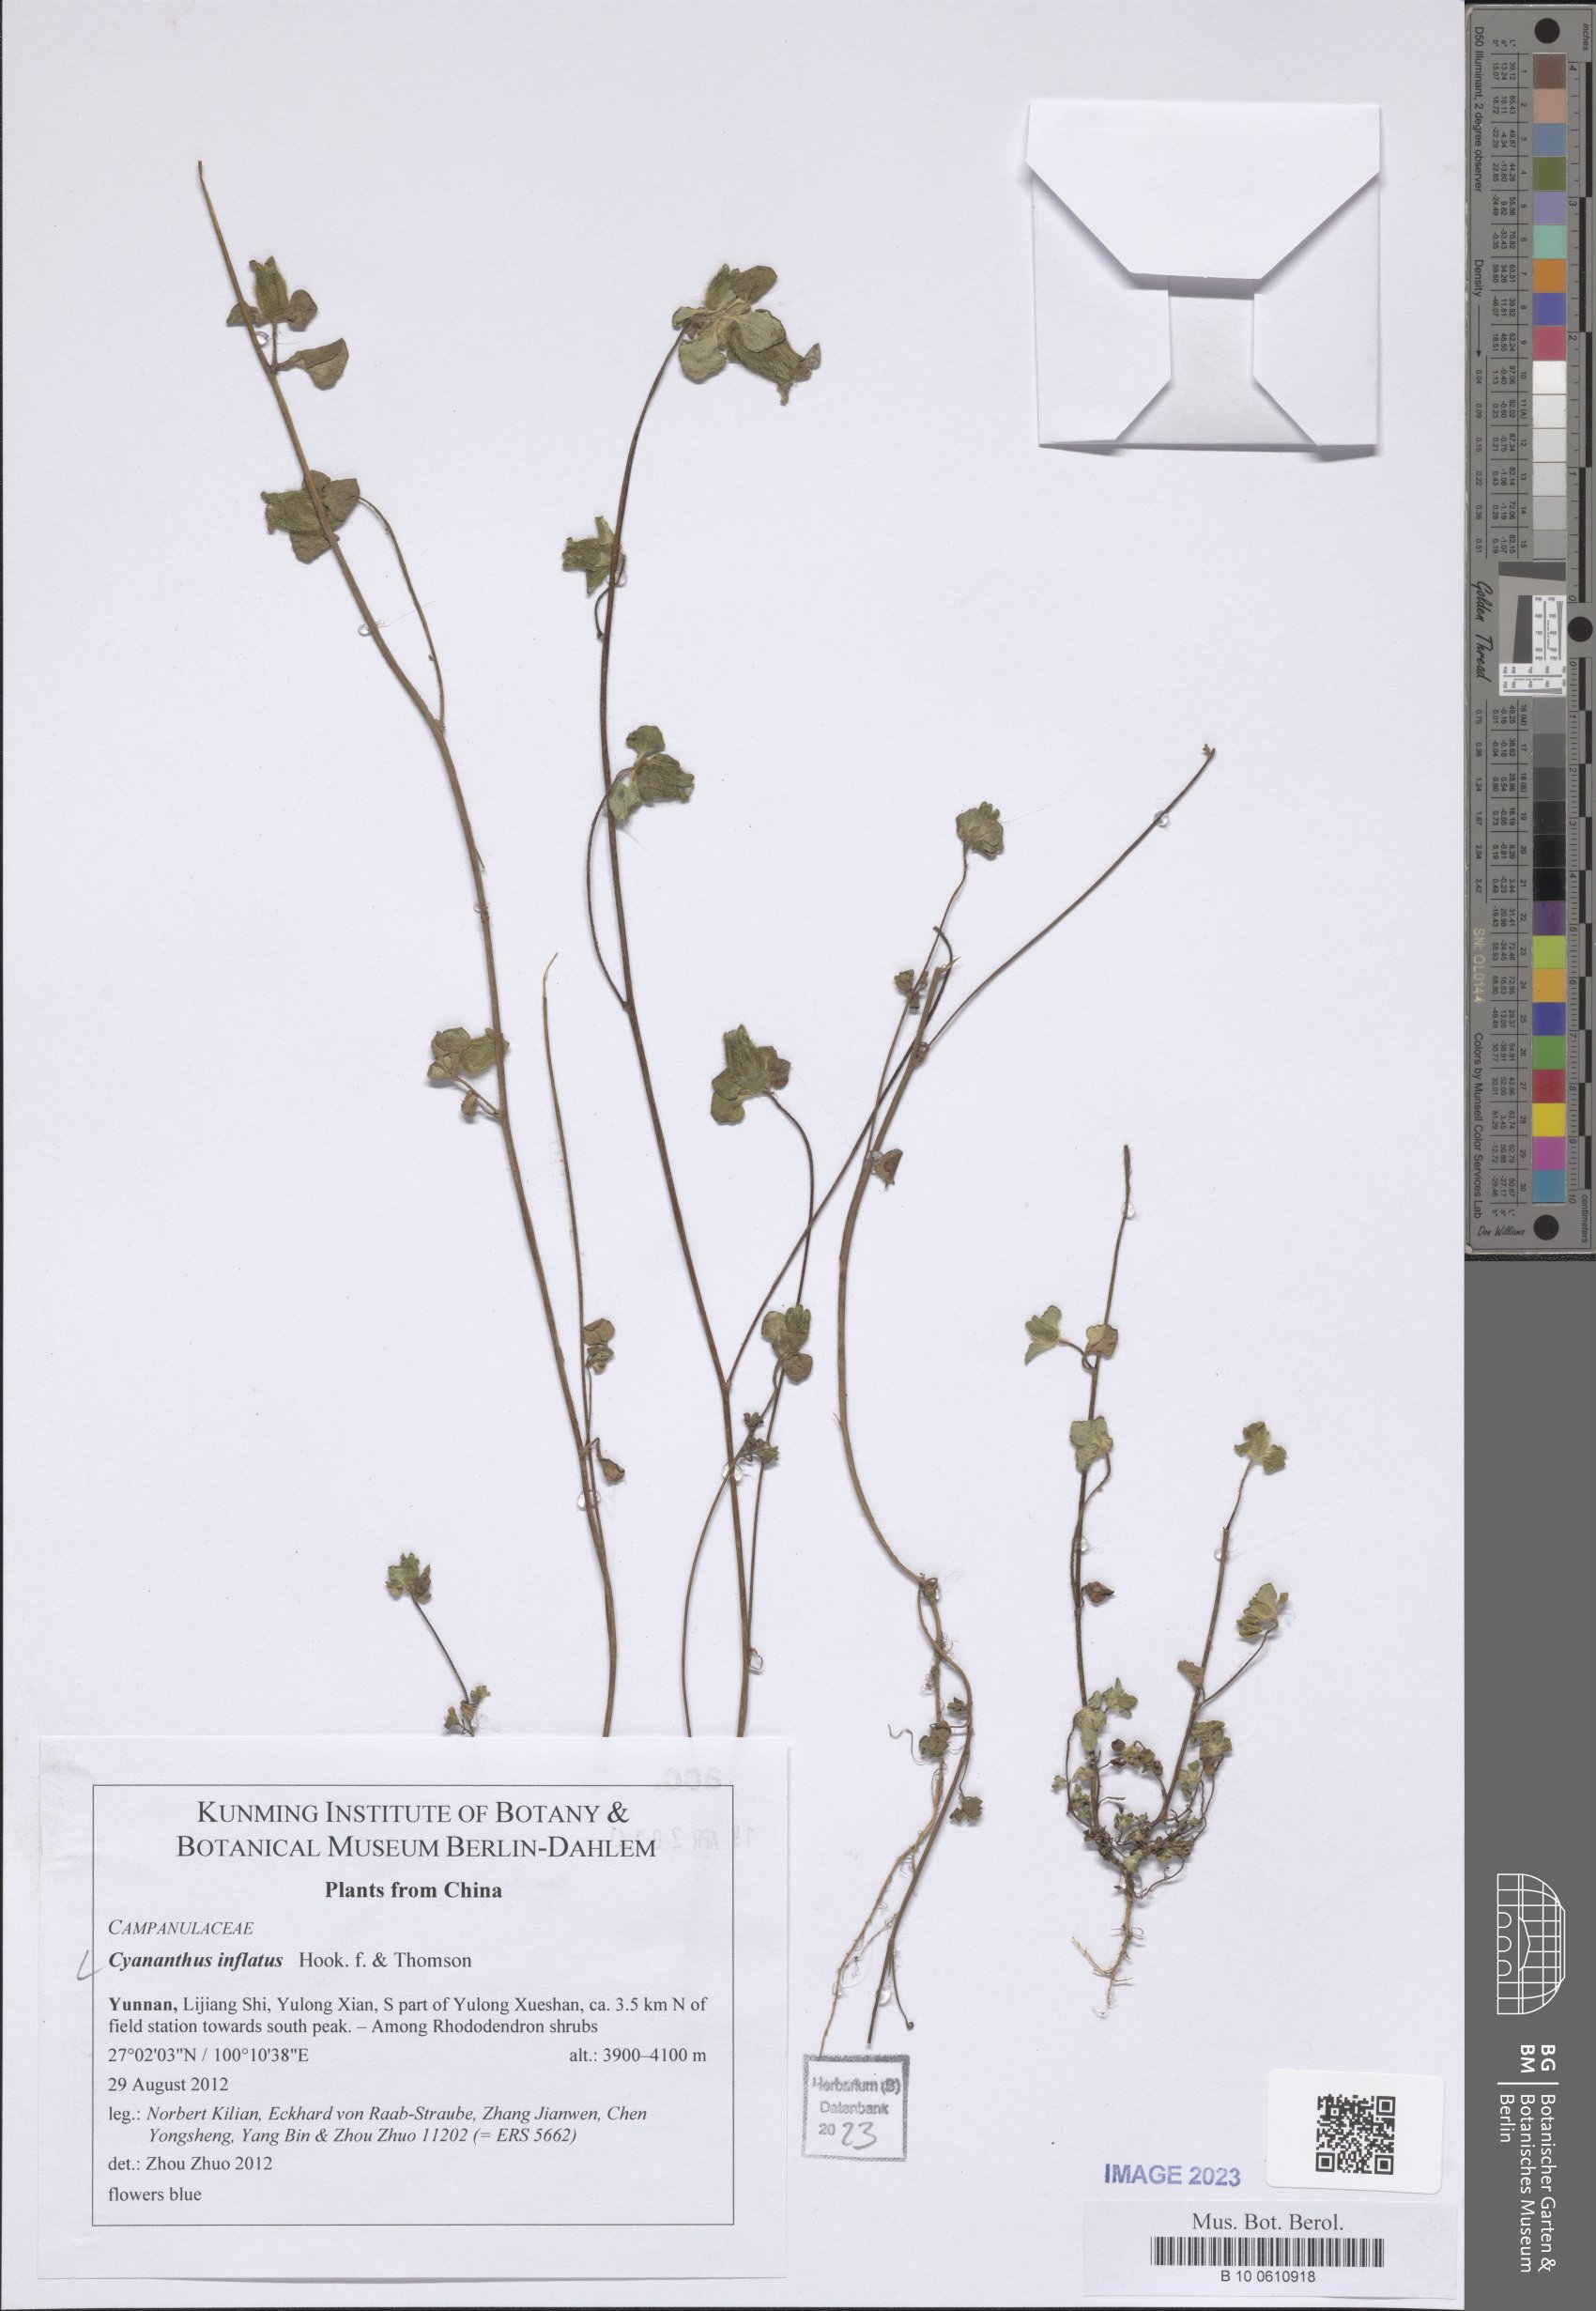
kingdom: Plantae
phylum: Tracheophyta
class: Magnoliopsida
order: Asterales
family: Campanulaceae
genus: Cyananthus
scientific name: Cyananthus inflatus
